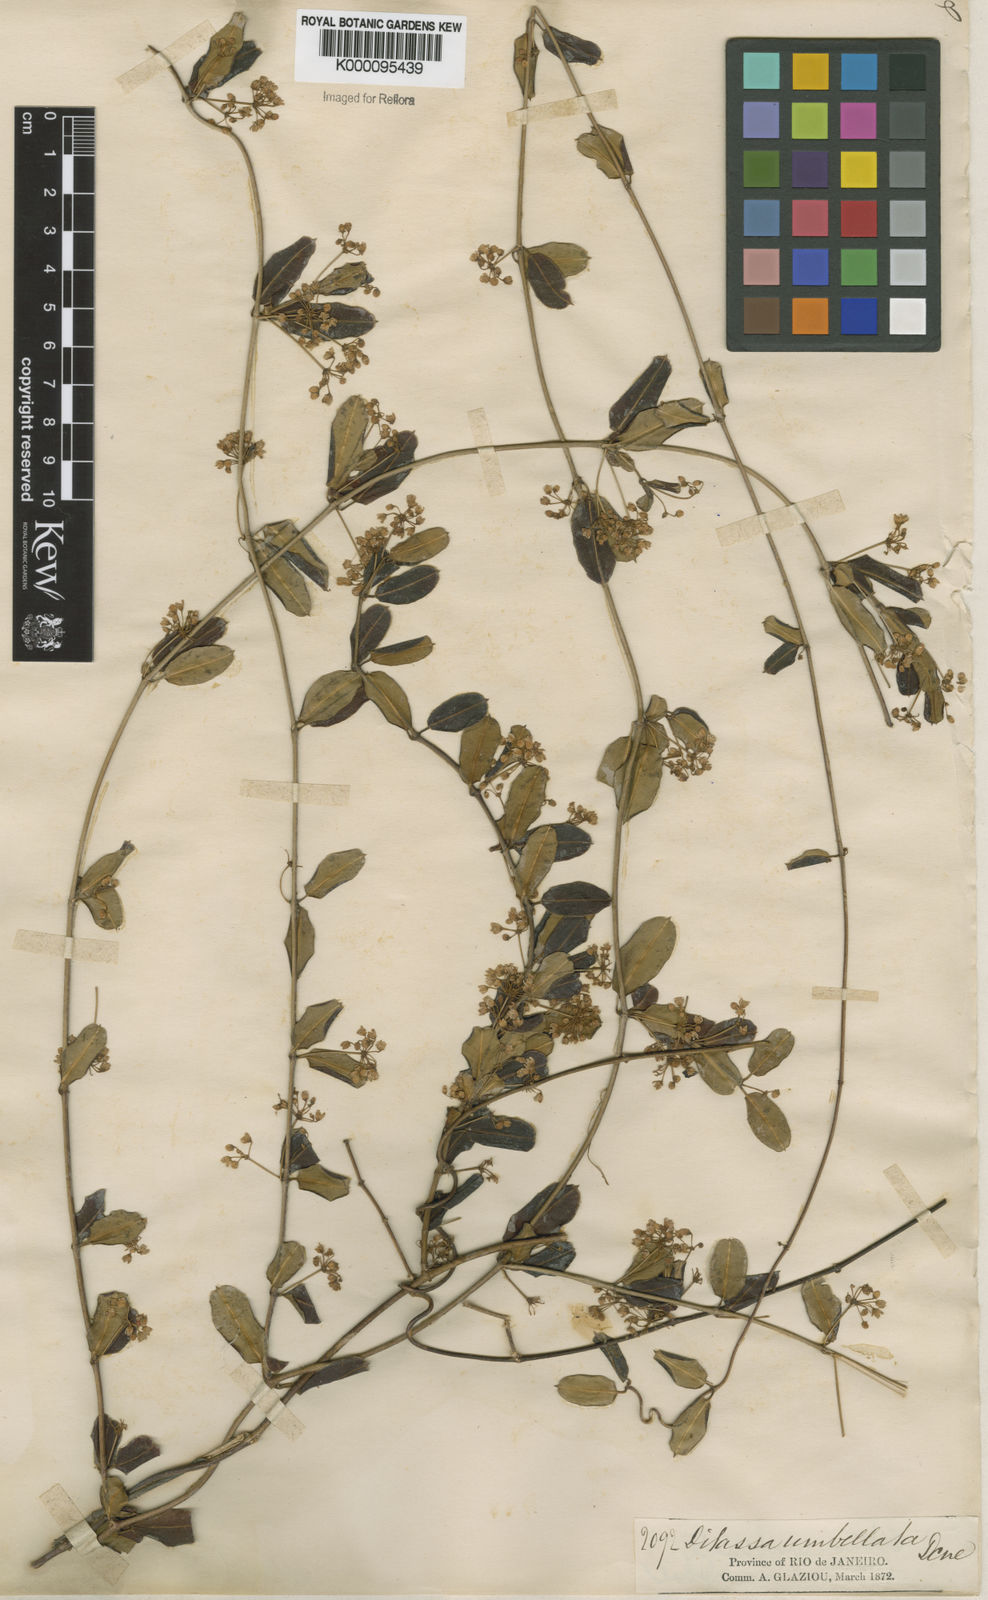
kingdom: Plantae
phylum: Tracheophyta
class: Magnoliopsida
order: Gentianales
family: Apocynaceae
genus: Ditassa
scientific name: Ditassa banksii
